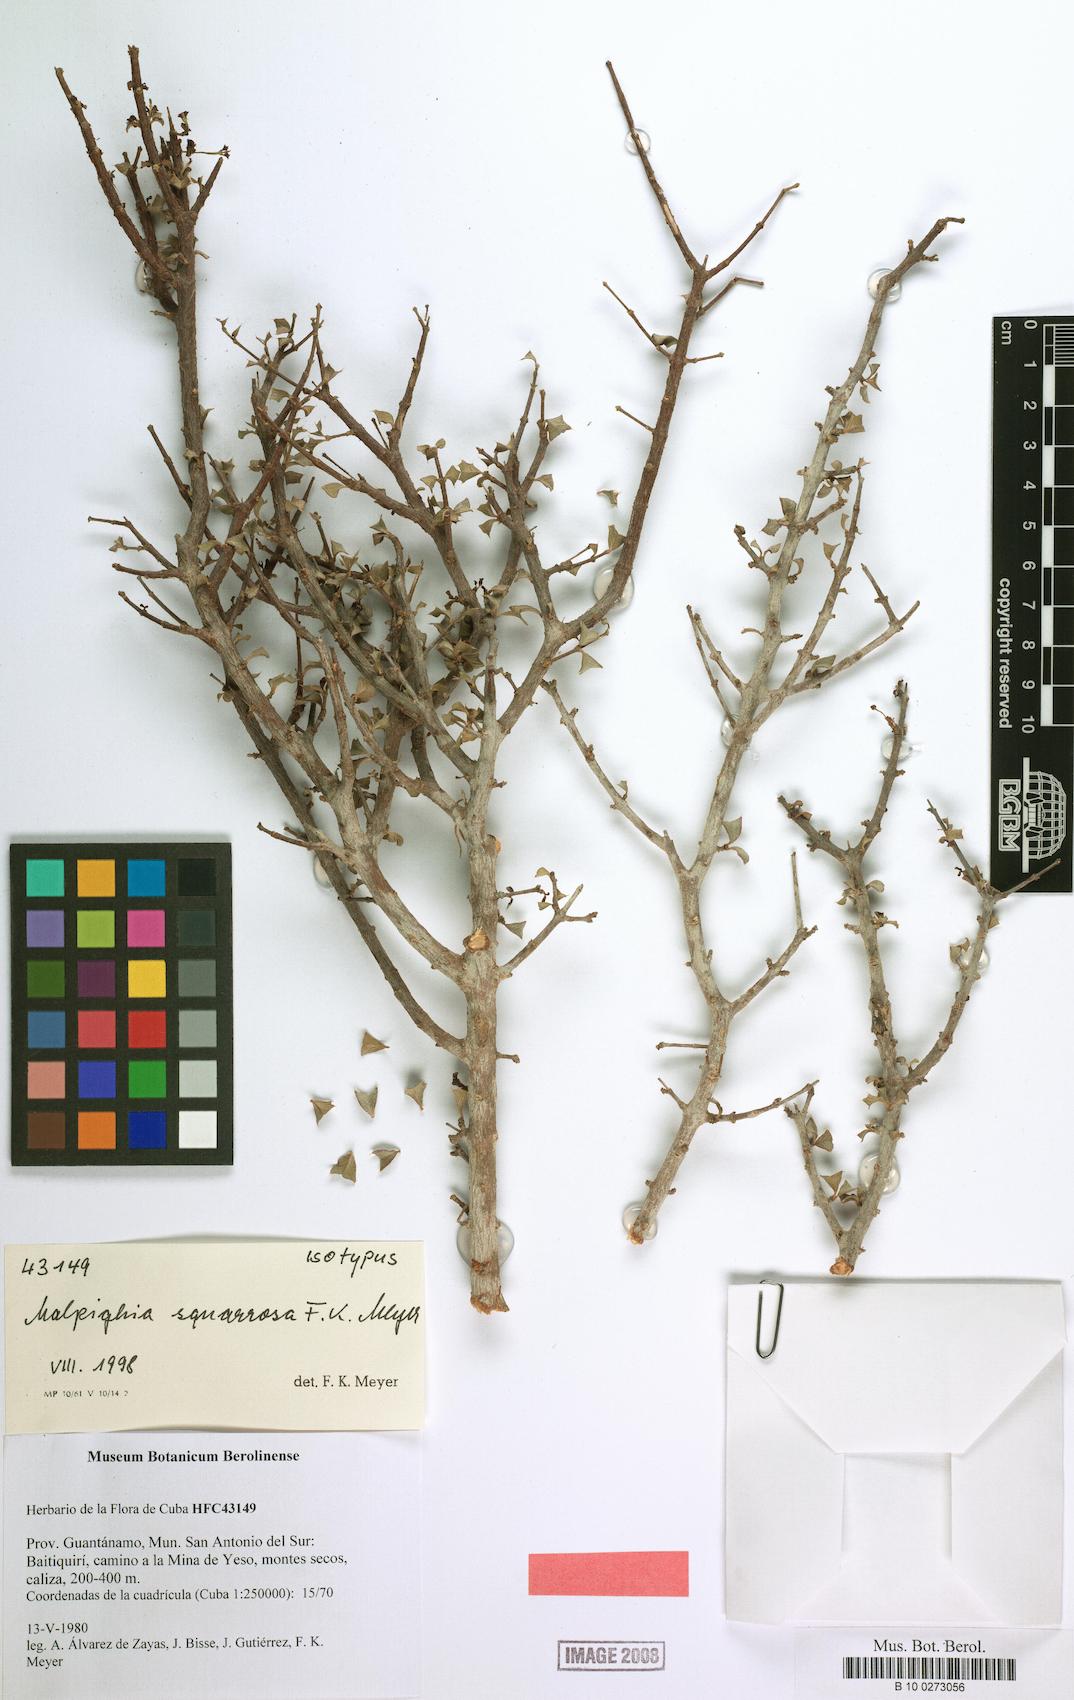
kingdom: Plantae
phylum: Tracheophyta
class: Magnoliopsida
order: Malpighiales
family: Malpighiaceae
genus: Malpighia
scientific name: Malpighia squarrosa
